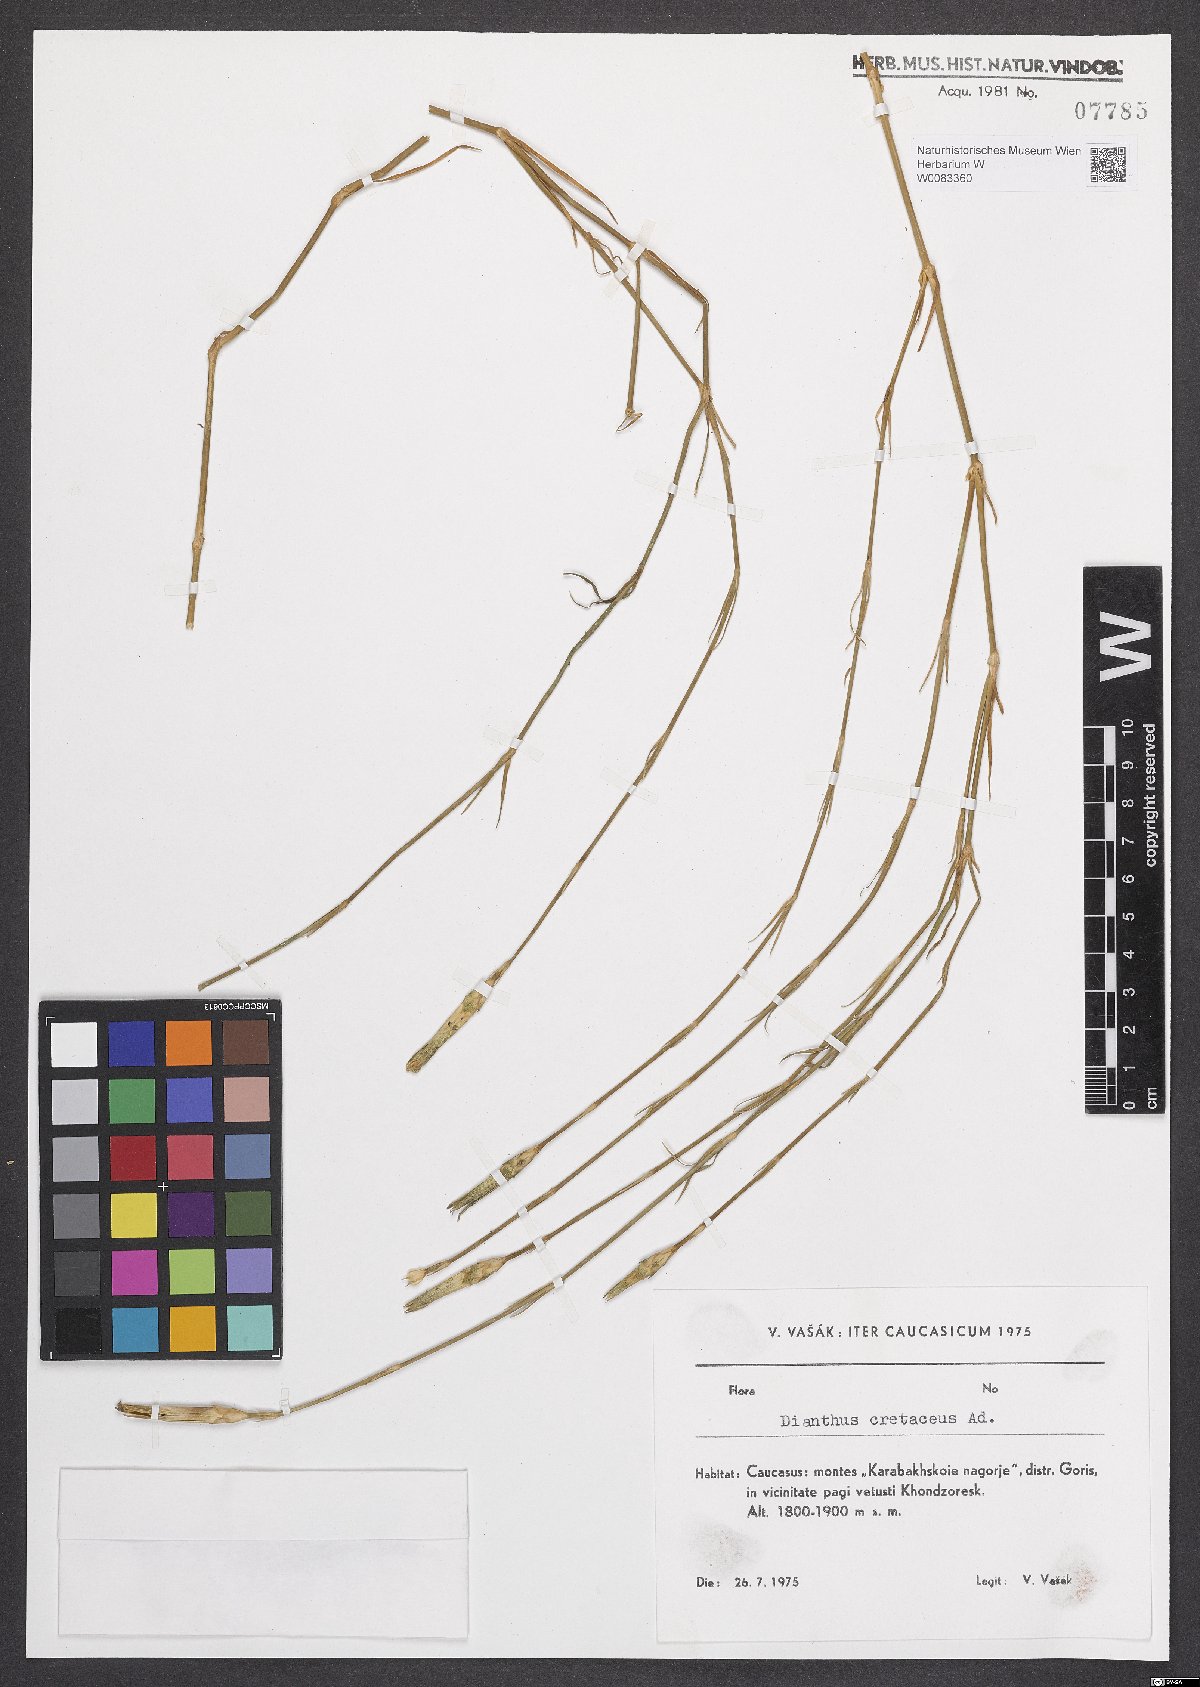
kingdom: Plantae
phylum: Tracheophyta
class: Magnoliopsida
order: Caryophyllales
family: Caryophyllaceae
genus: Dianthus
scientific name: Dianthus cretaceus
